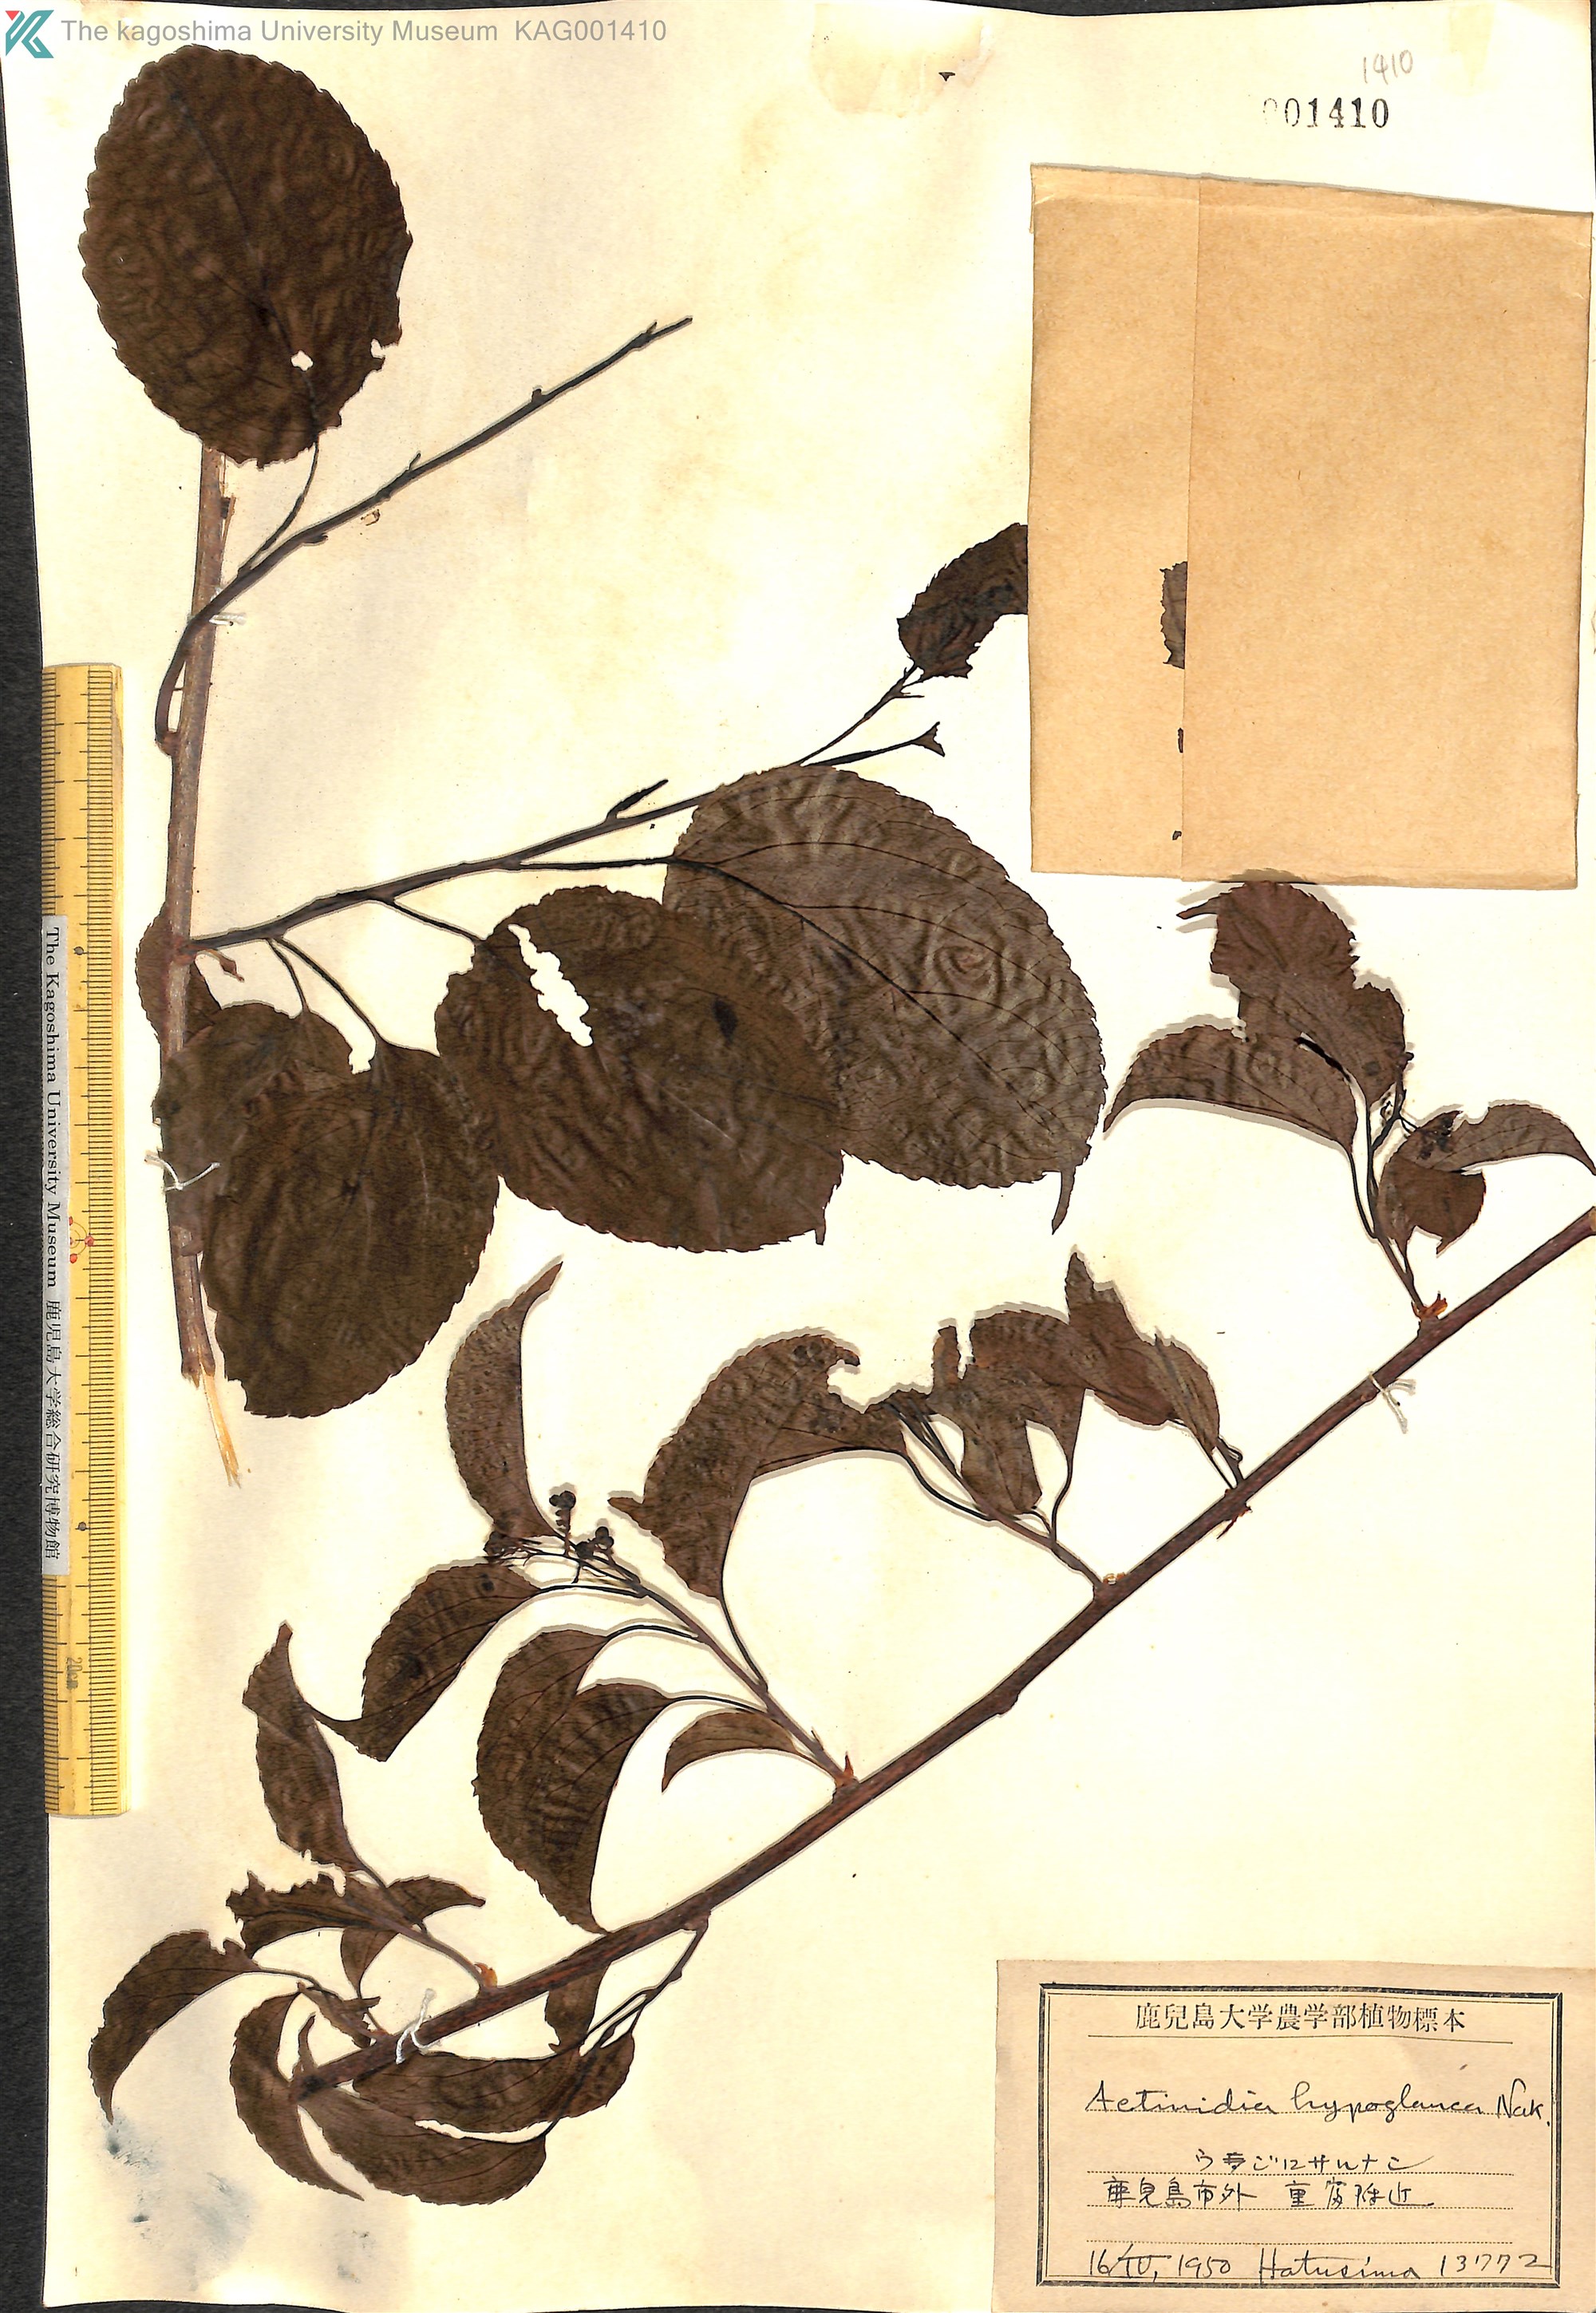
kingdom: Plantae
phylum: Tracheophyta
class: Magnoliopsida
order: Ericales
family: Actinidiaceae
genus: Actinidia
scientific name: Actinidia arguta
